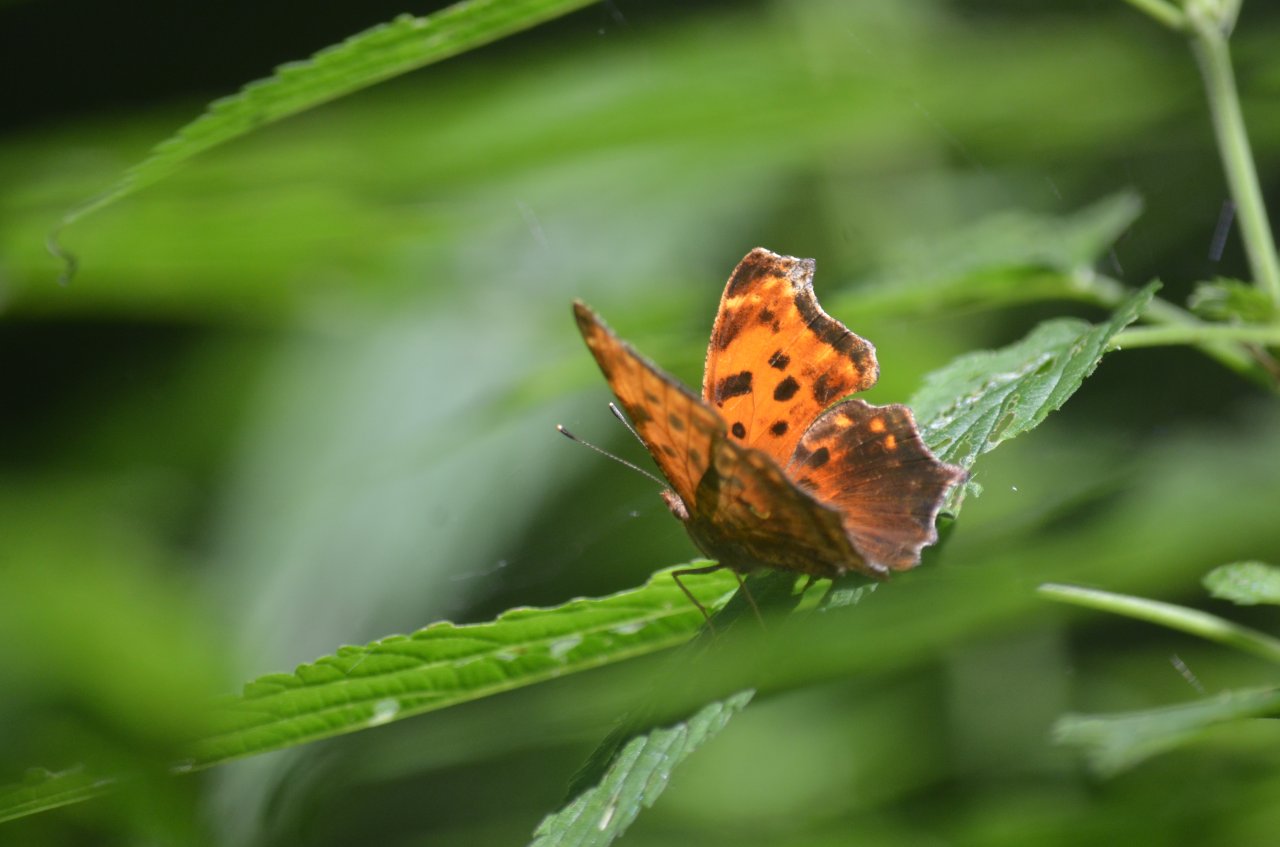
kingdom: Animalia
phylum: Arthropoda
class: Insecta
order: Lepidoptera
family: Nymphalidae
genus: Polygonia
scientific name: Polygonia comma
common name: Eastern Comma
